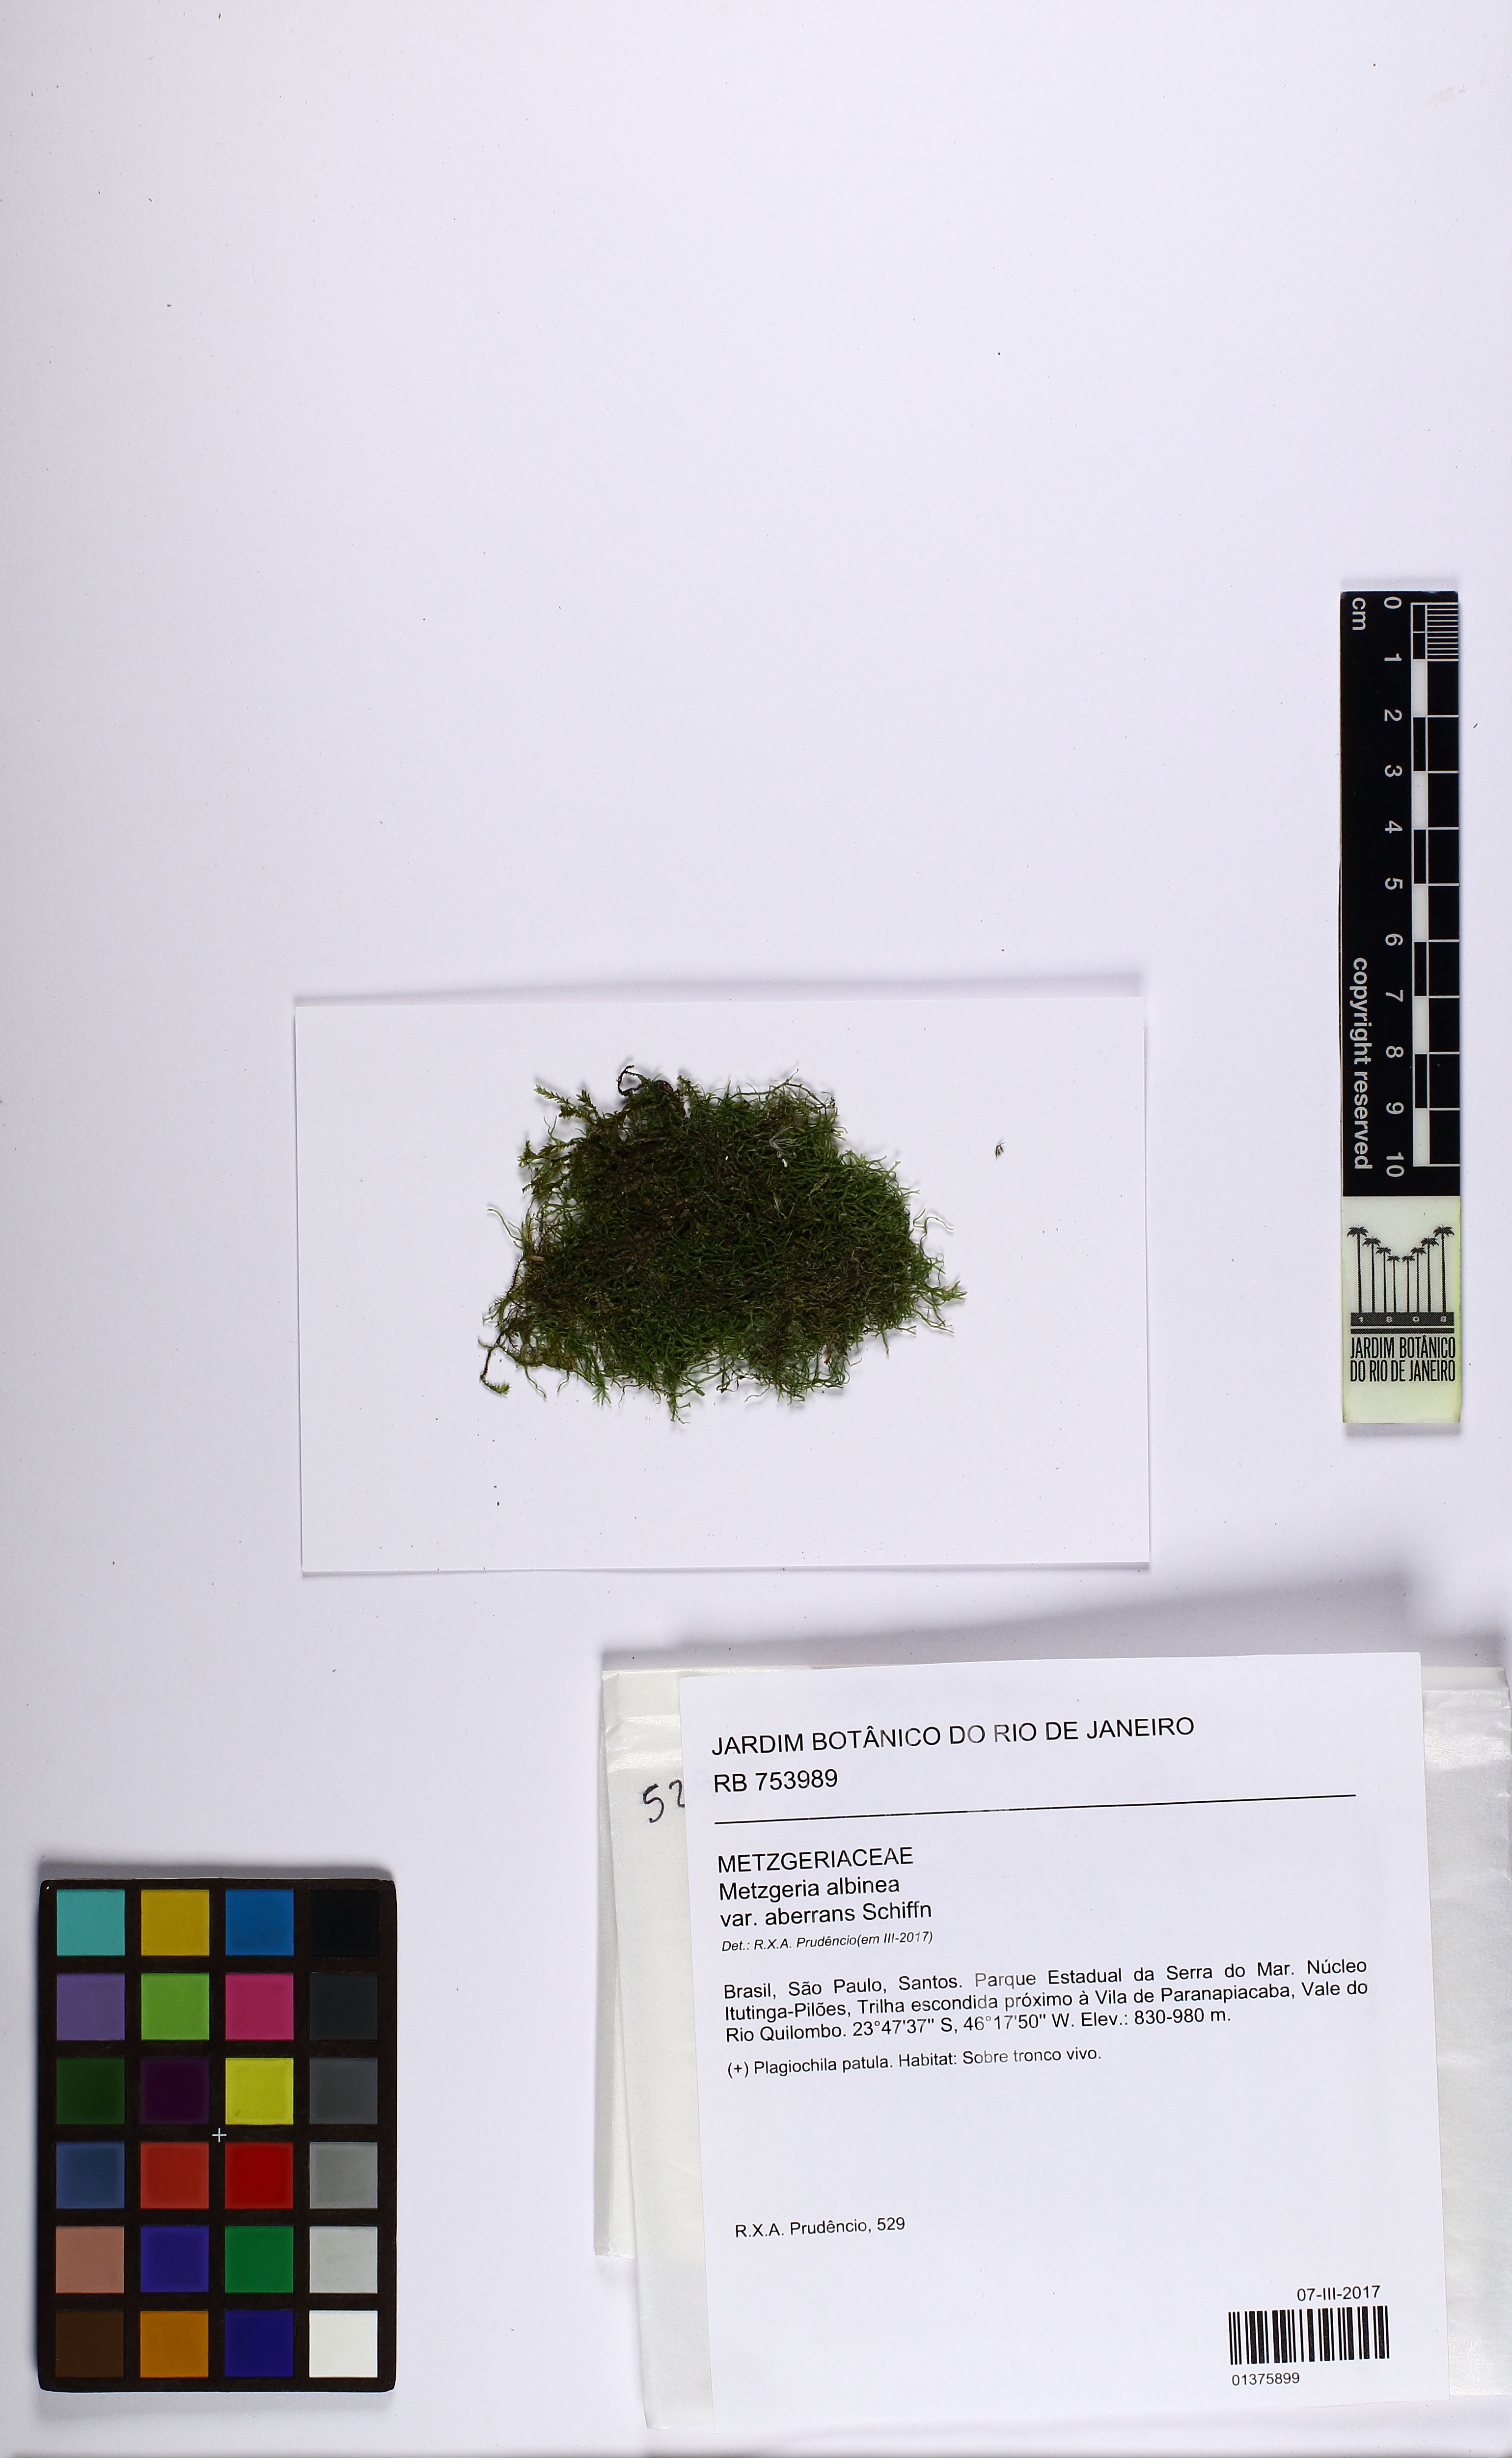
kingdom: Plantae
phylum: Marchantiophyta
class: Jungermanniopsida
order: Metzgeriales
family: Metzgeriaceae
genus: Metzgeria
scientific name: Metzgeria albinea
